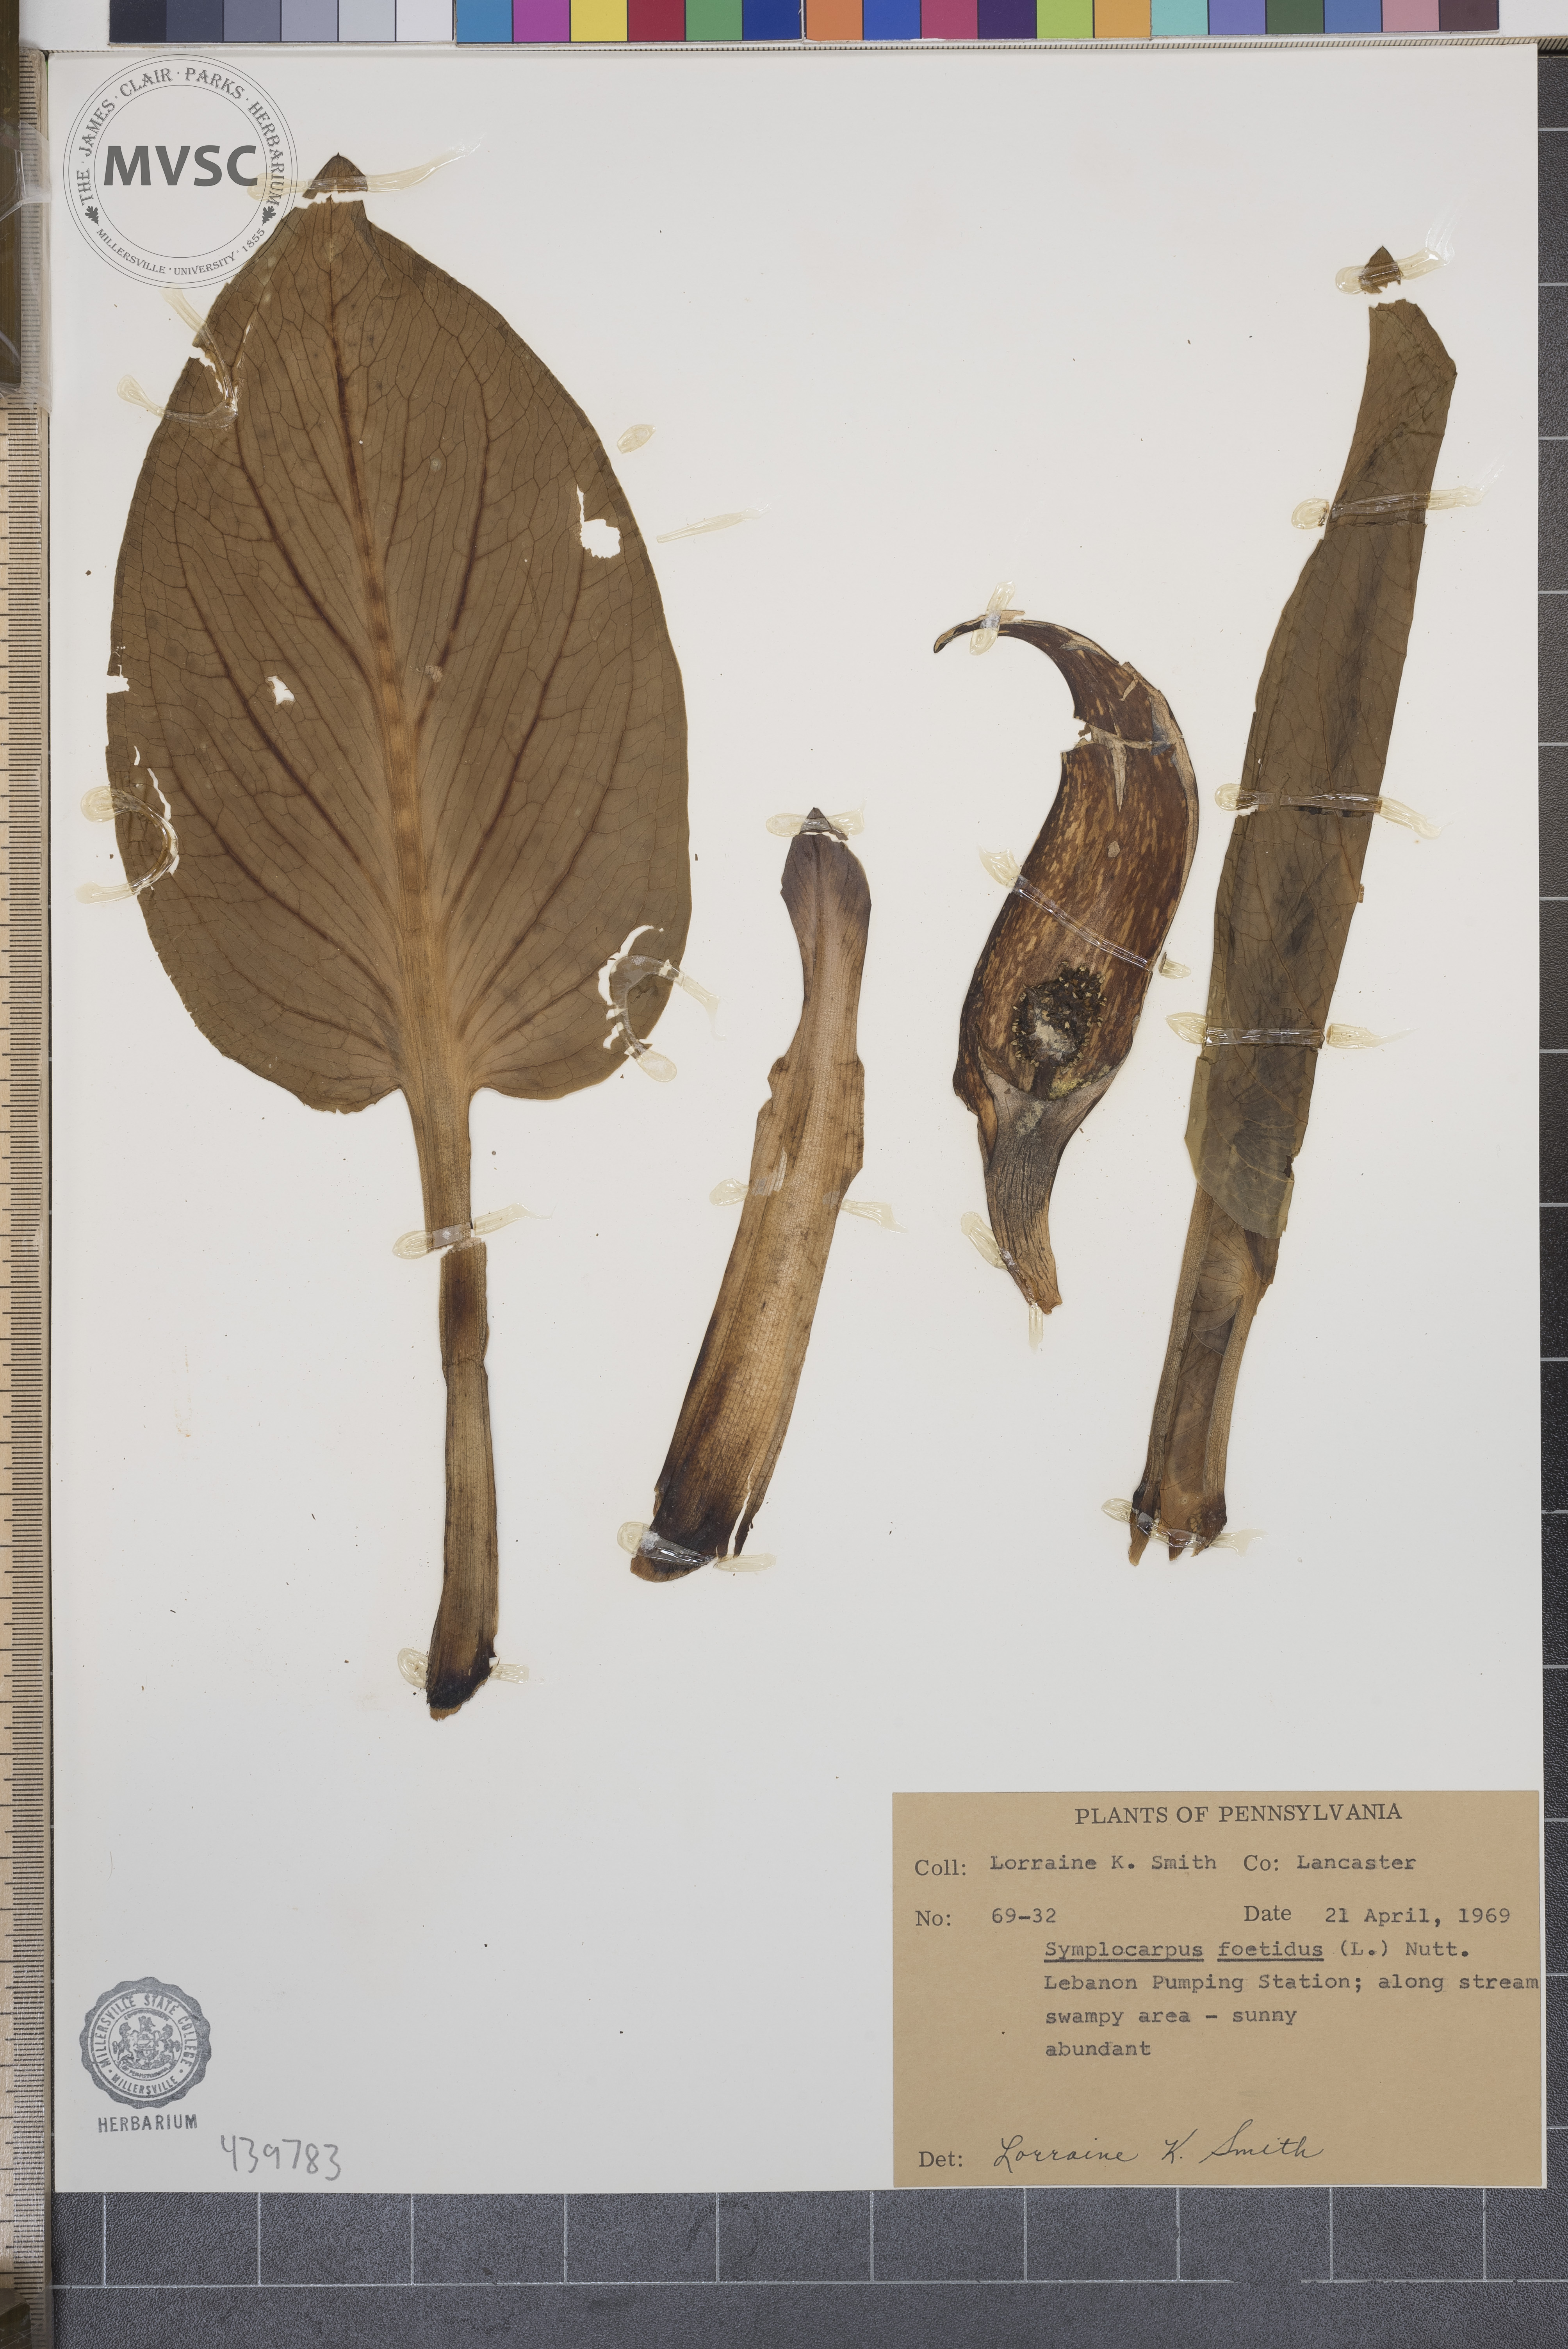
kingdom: Plantae
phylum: Tracheophyta
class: Liliopsida
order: Alismatales
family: Araceae
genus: Symplocarpus
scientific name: Symplocarpus foetidus
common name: Eastern skunk cabbage
